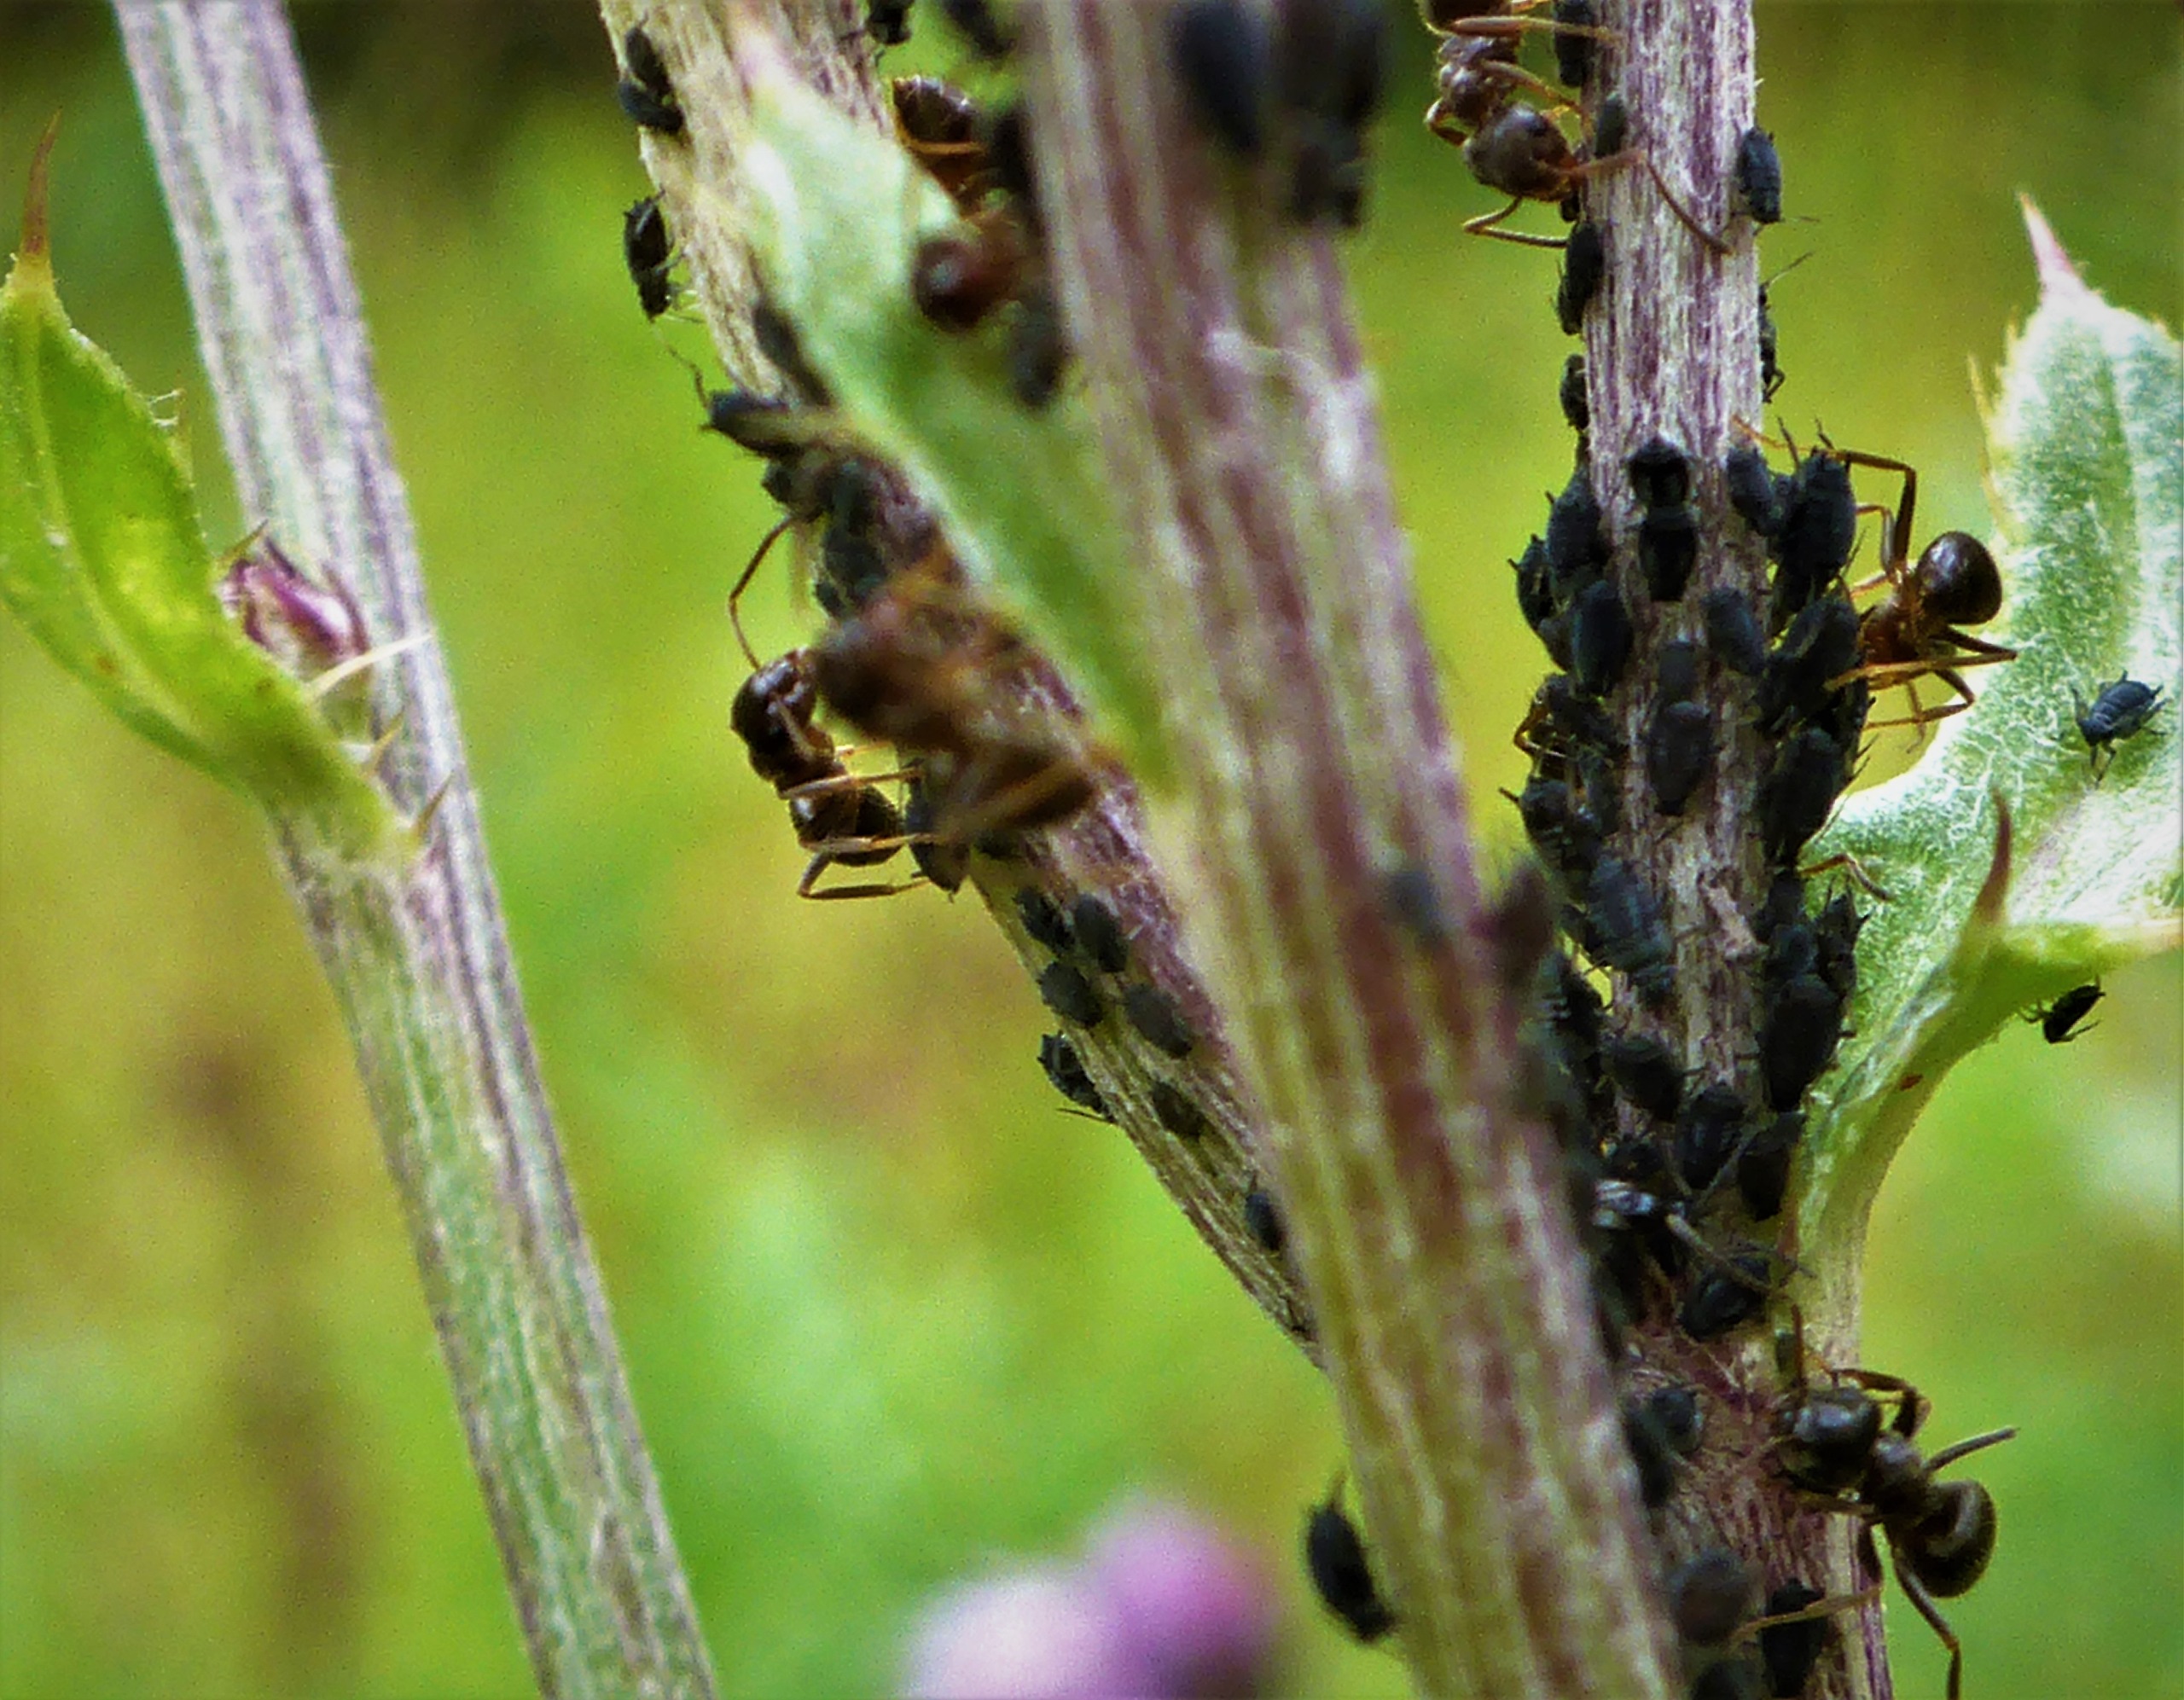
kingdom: Animalia
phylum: Arthropoda
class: Insecta
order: Hemiptera
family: Aphididae
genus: Aphis
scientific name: Aphis fabae
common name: Bedebladlus
